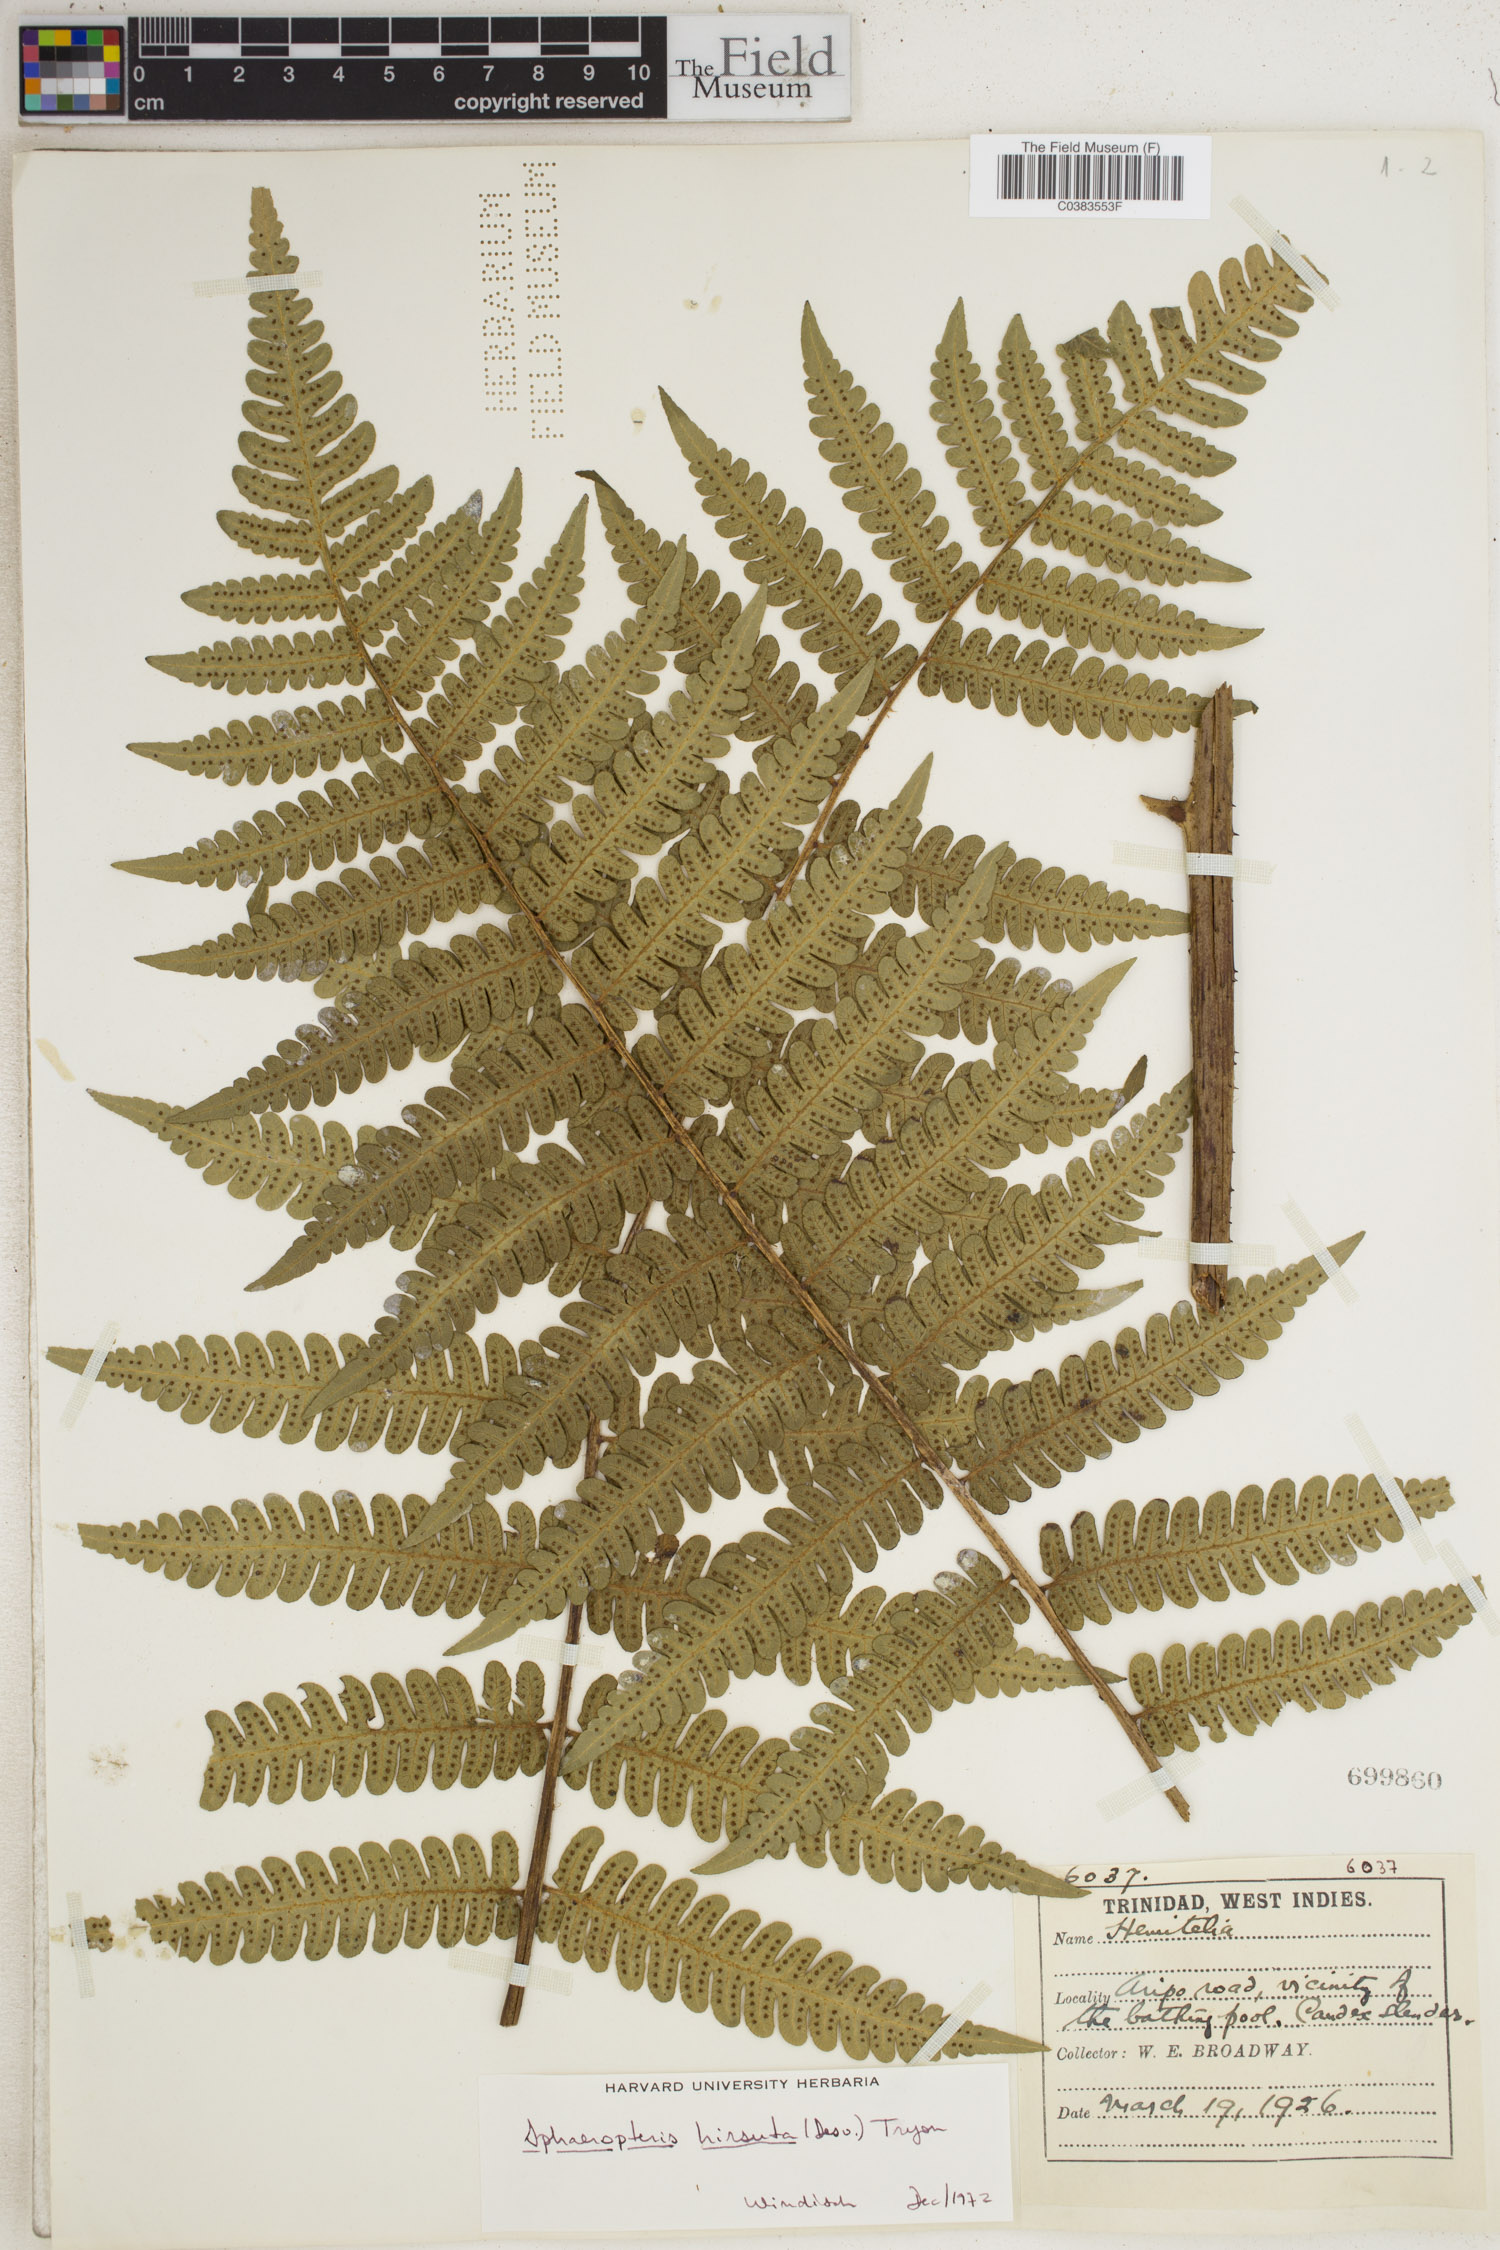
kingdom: Plantae
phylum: Tracheophyta
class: Polypodiopsida
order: Cyatheales
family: Cyatheaceae
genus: Cyathea
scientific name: Cyathea surinamensis
